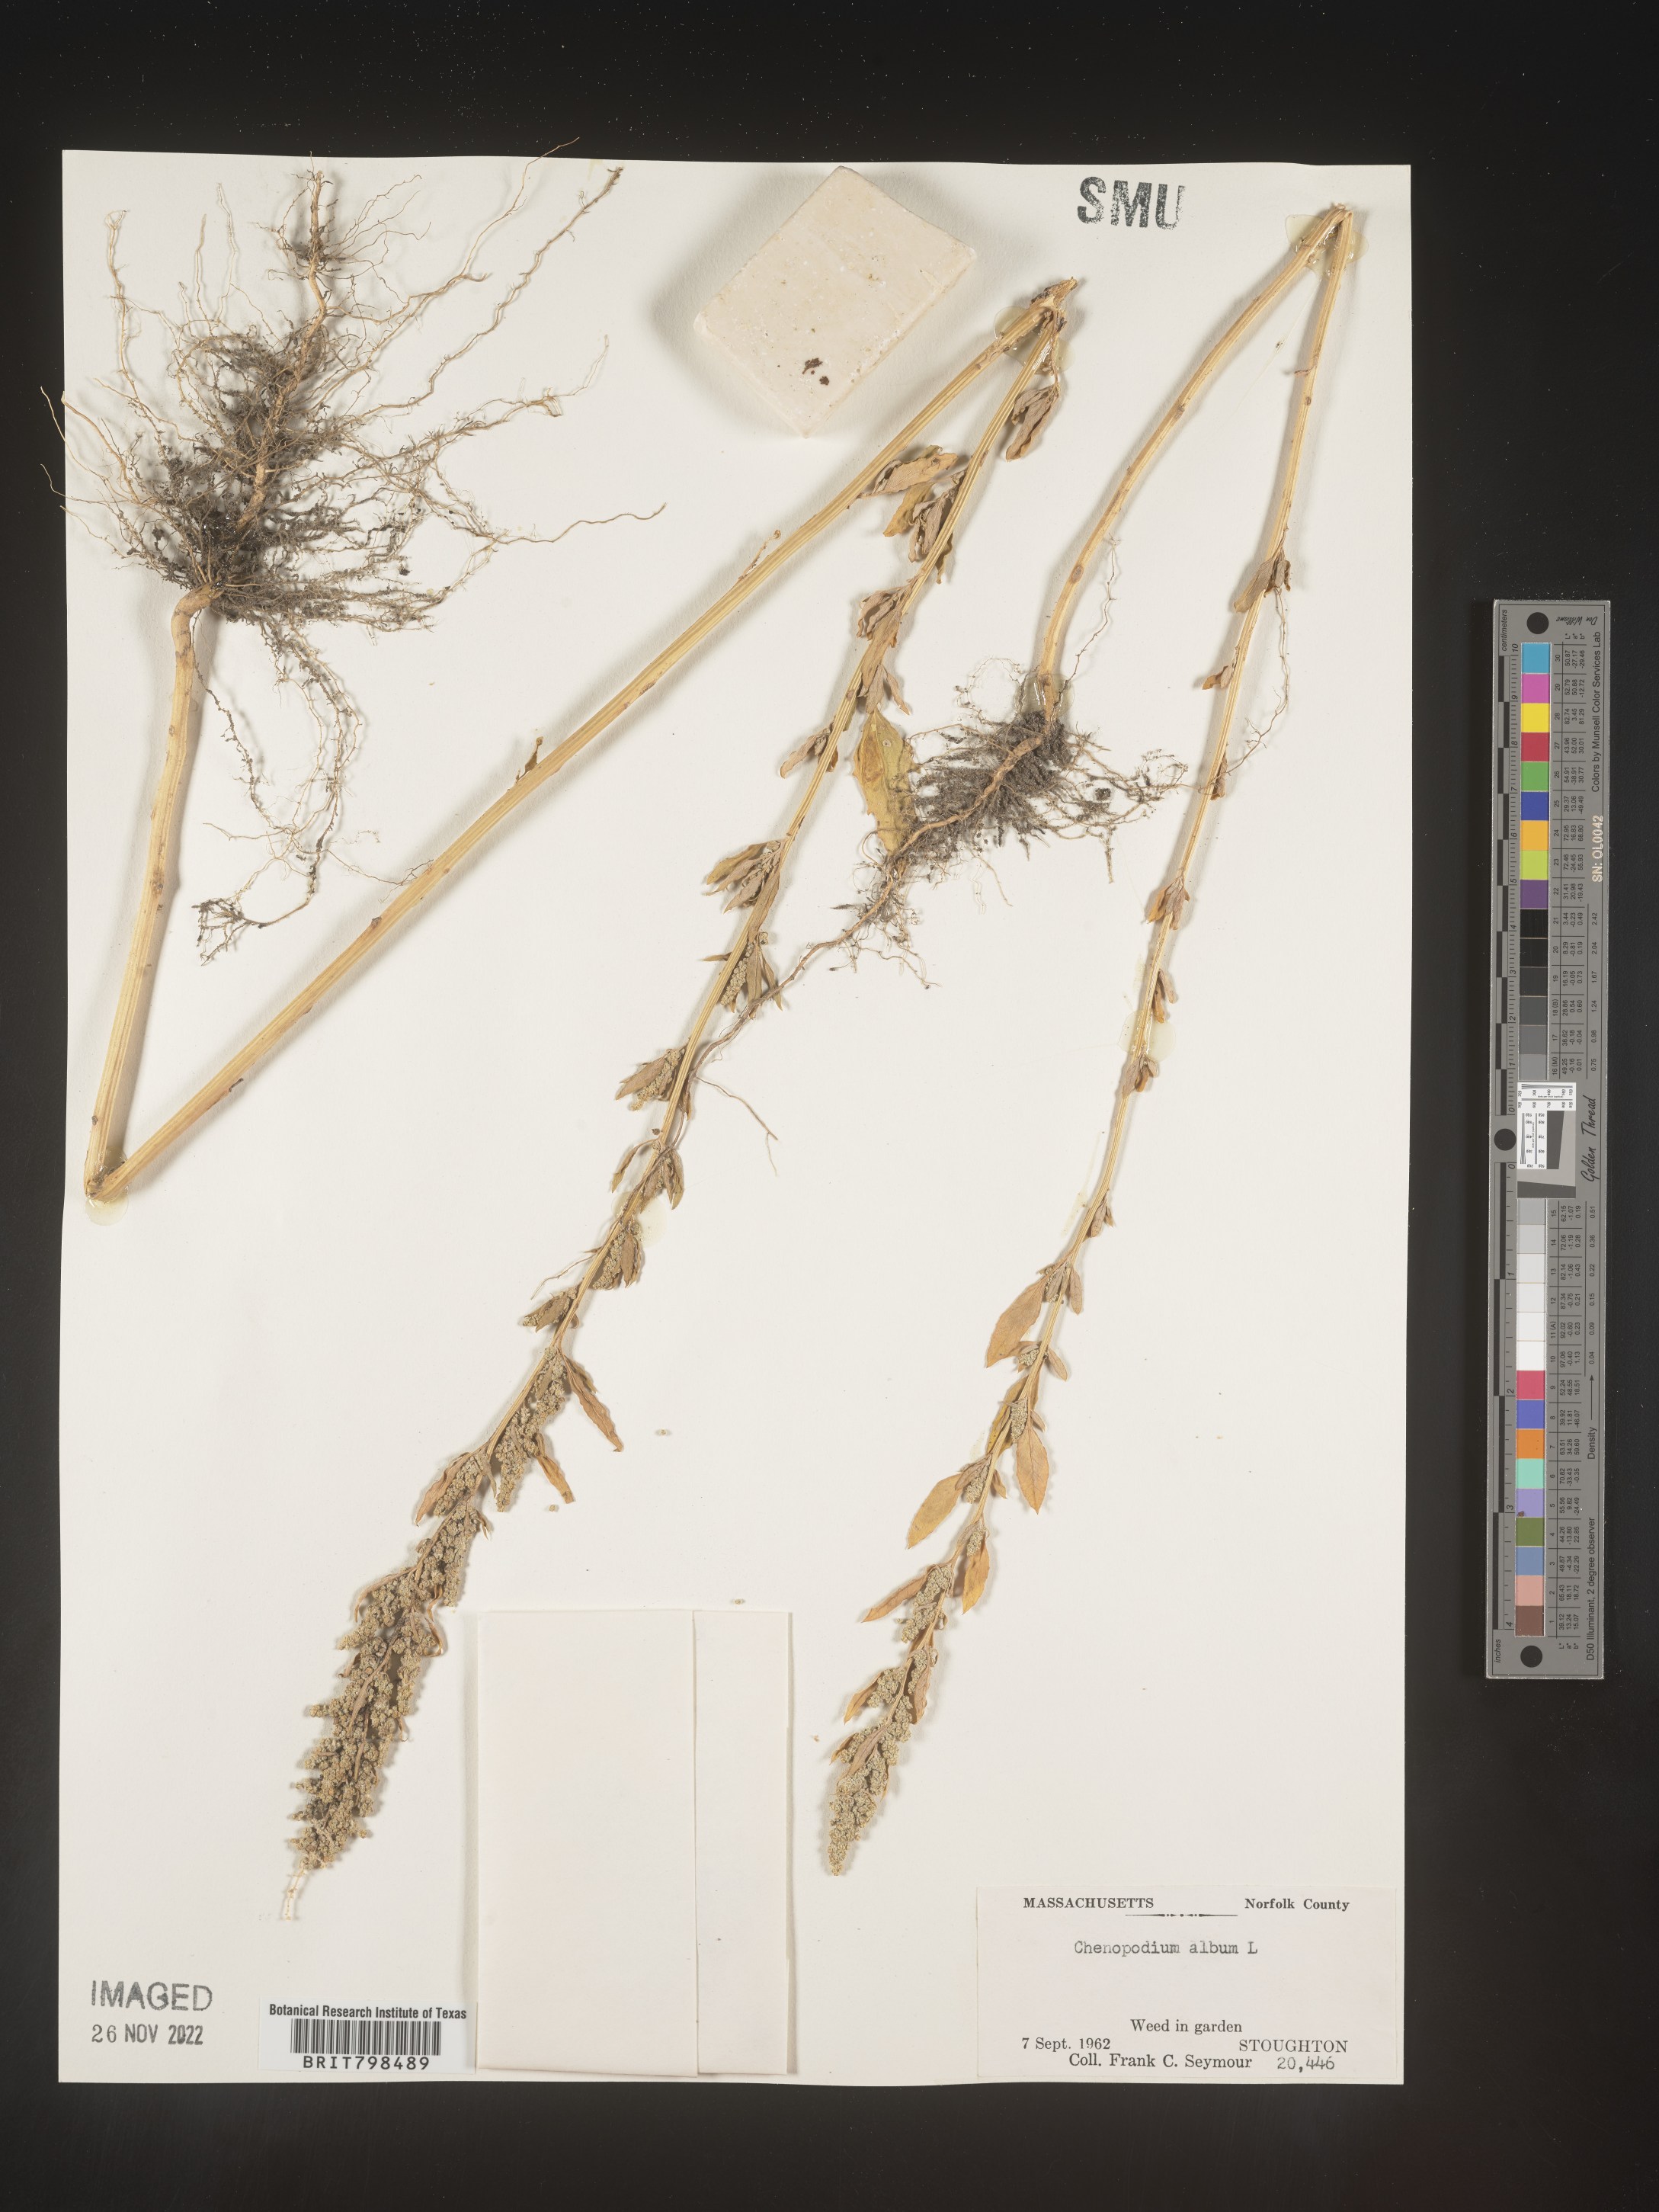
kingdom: Plantae
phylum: Tracheophyta
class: Magnoliopsida
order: Caryophyllales
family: Amaranthaceae
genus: Chenopodium
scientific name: Chenopodium album
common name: Fat-hen
